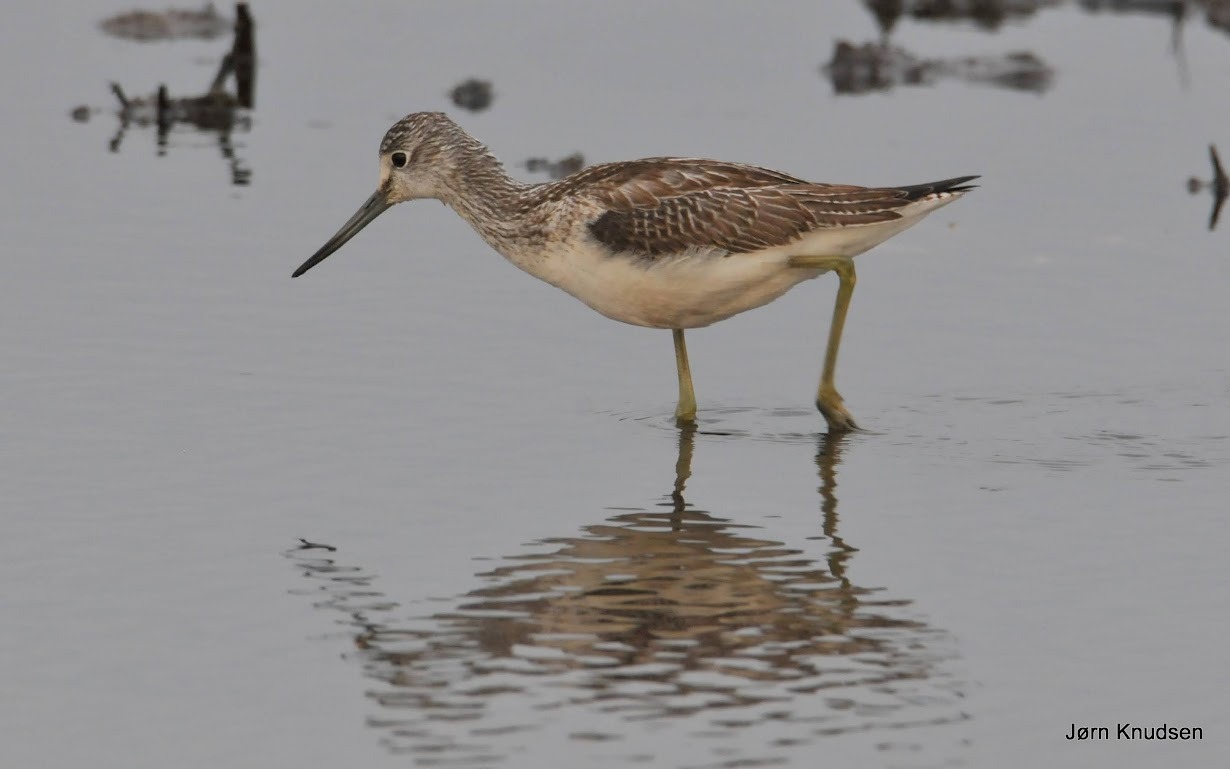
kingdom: Animalia
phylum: Chordata
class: Aves
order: Charadriiformes
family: Scolopacidae
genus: Tringa
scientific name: Tringa nebularia
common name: Hvidklire
